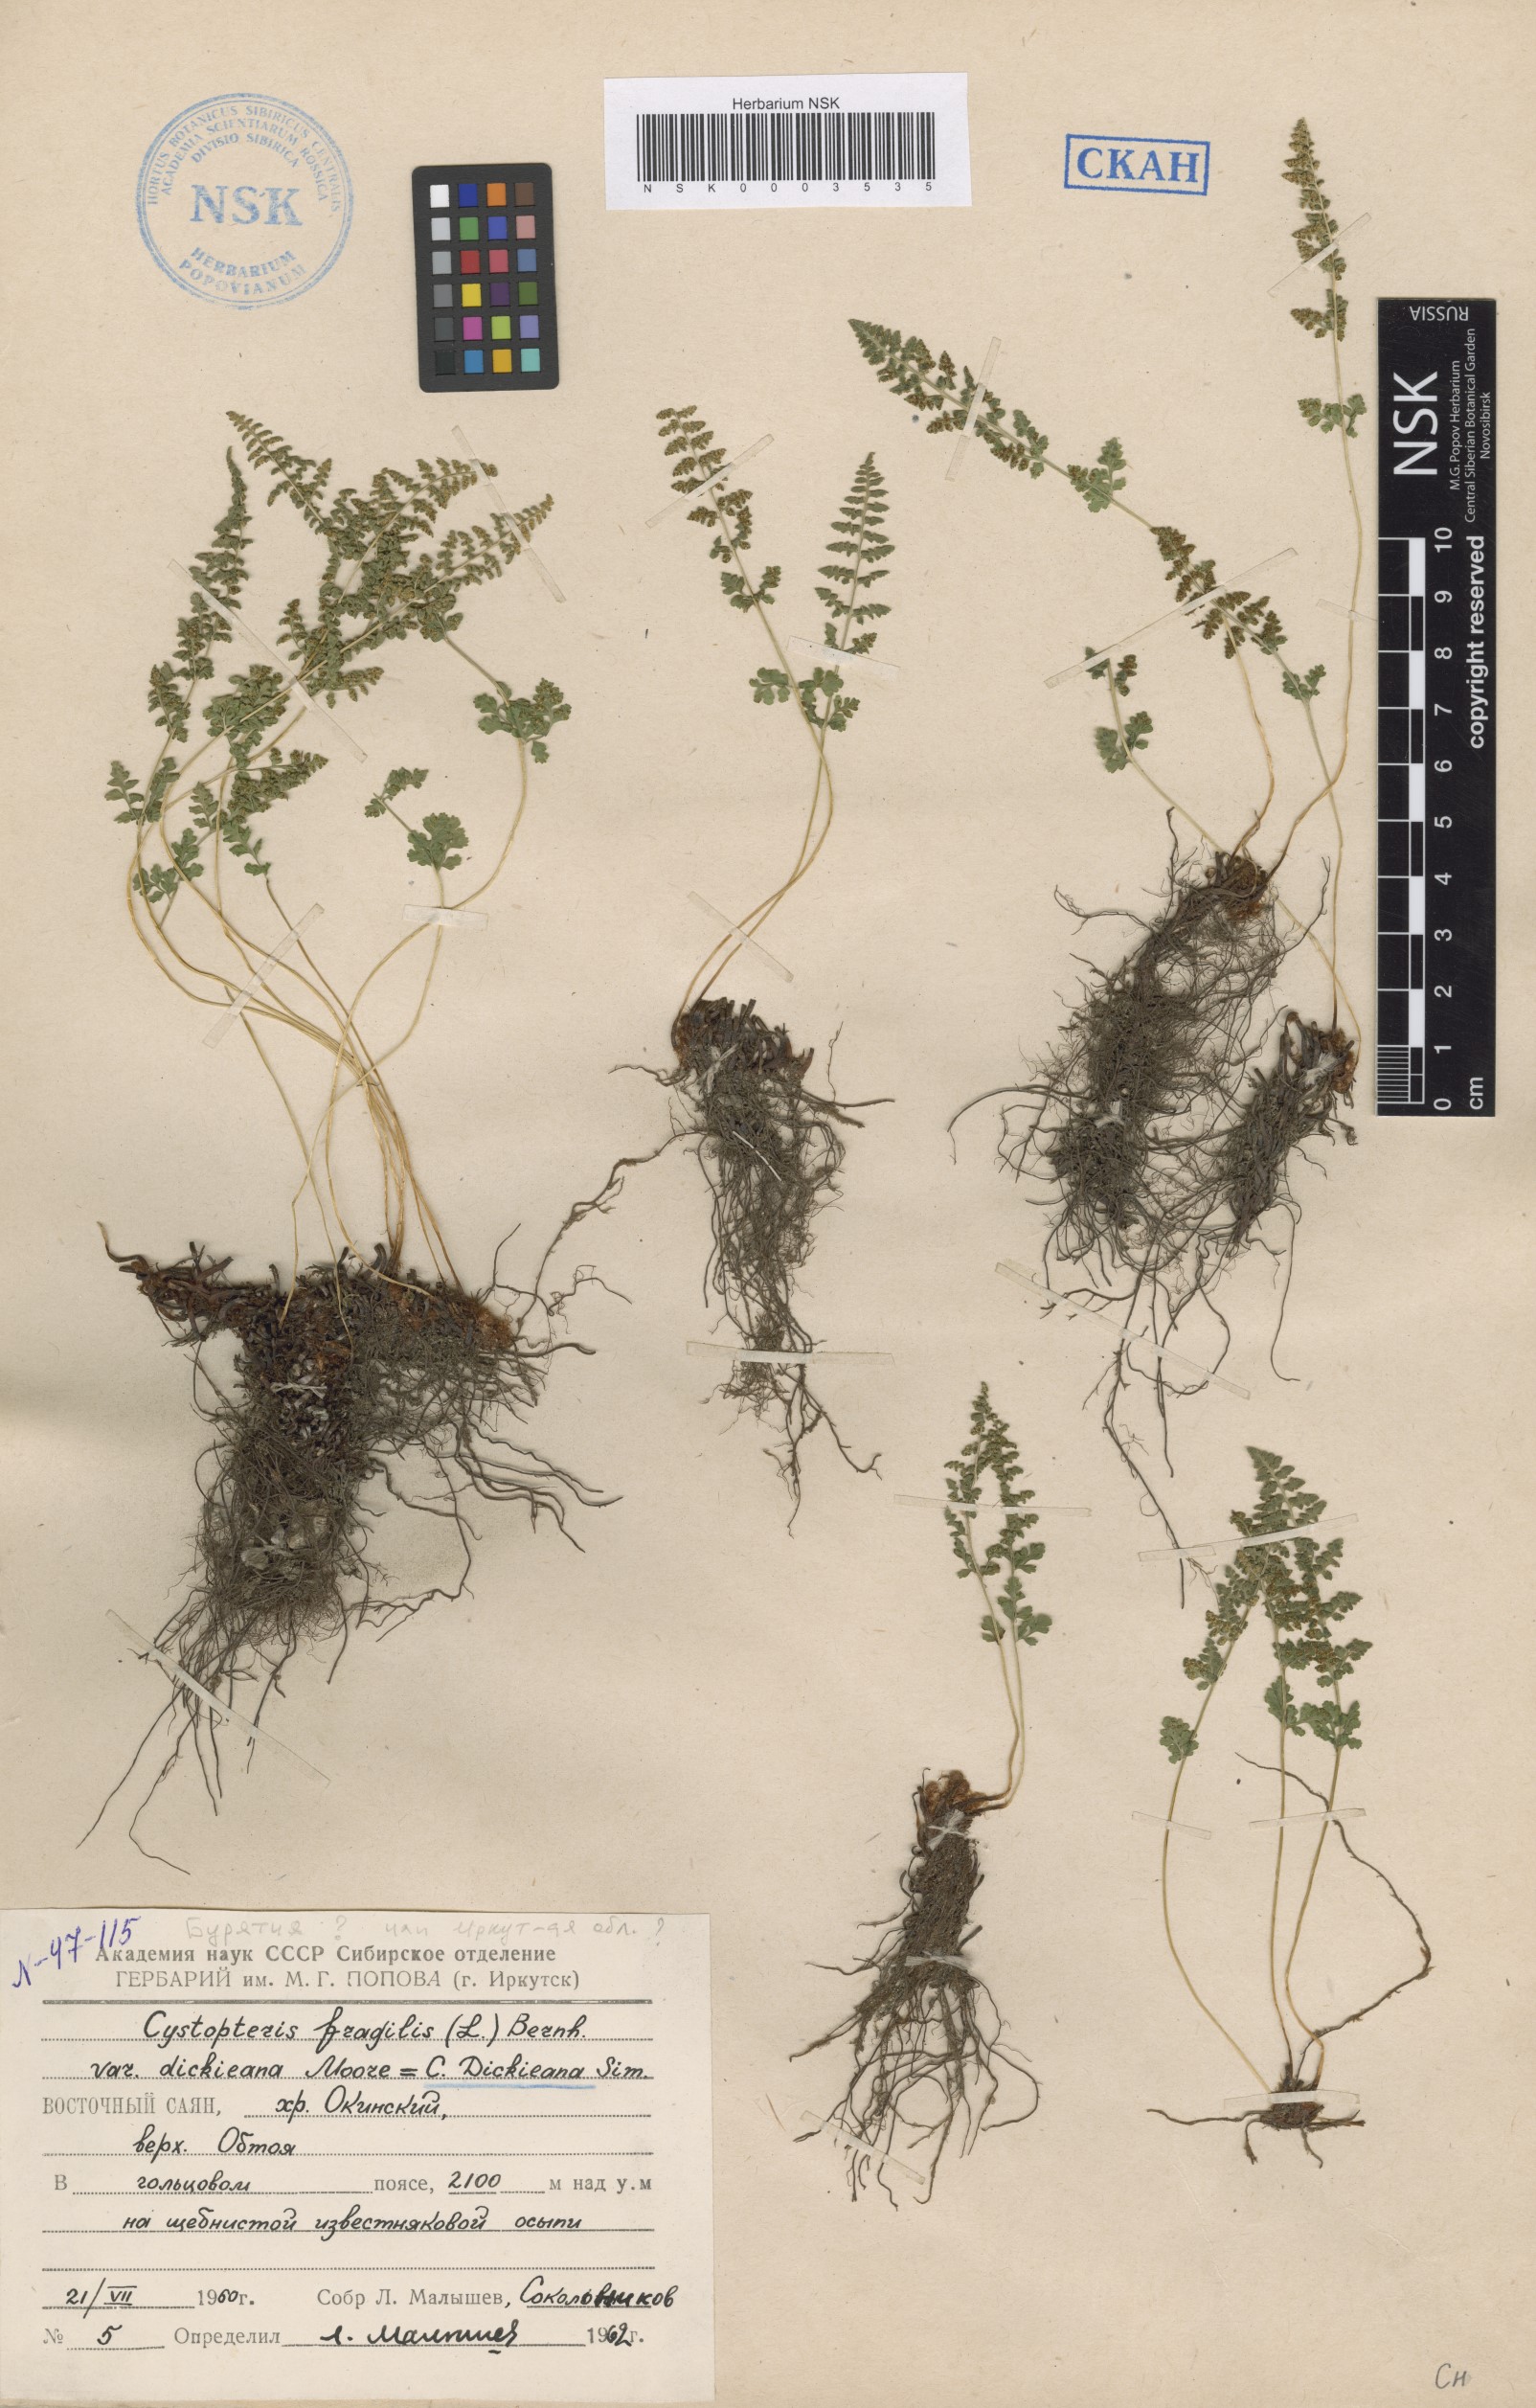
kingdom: Plantae
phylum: Tracheophyta
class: Polypodiopsida
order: Polypodiales
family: Cystopteridaceae
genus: Cystopteris
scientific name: Cystopteris dickieana
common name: Dickie's bladder-fern
